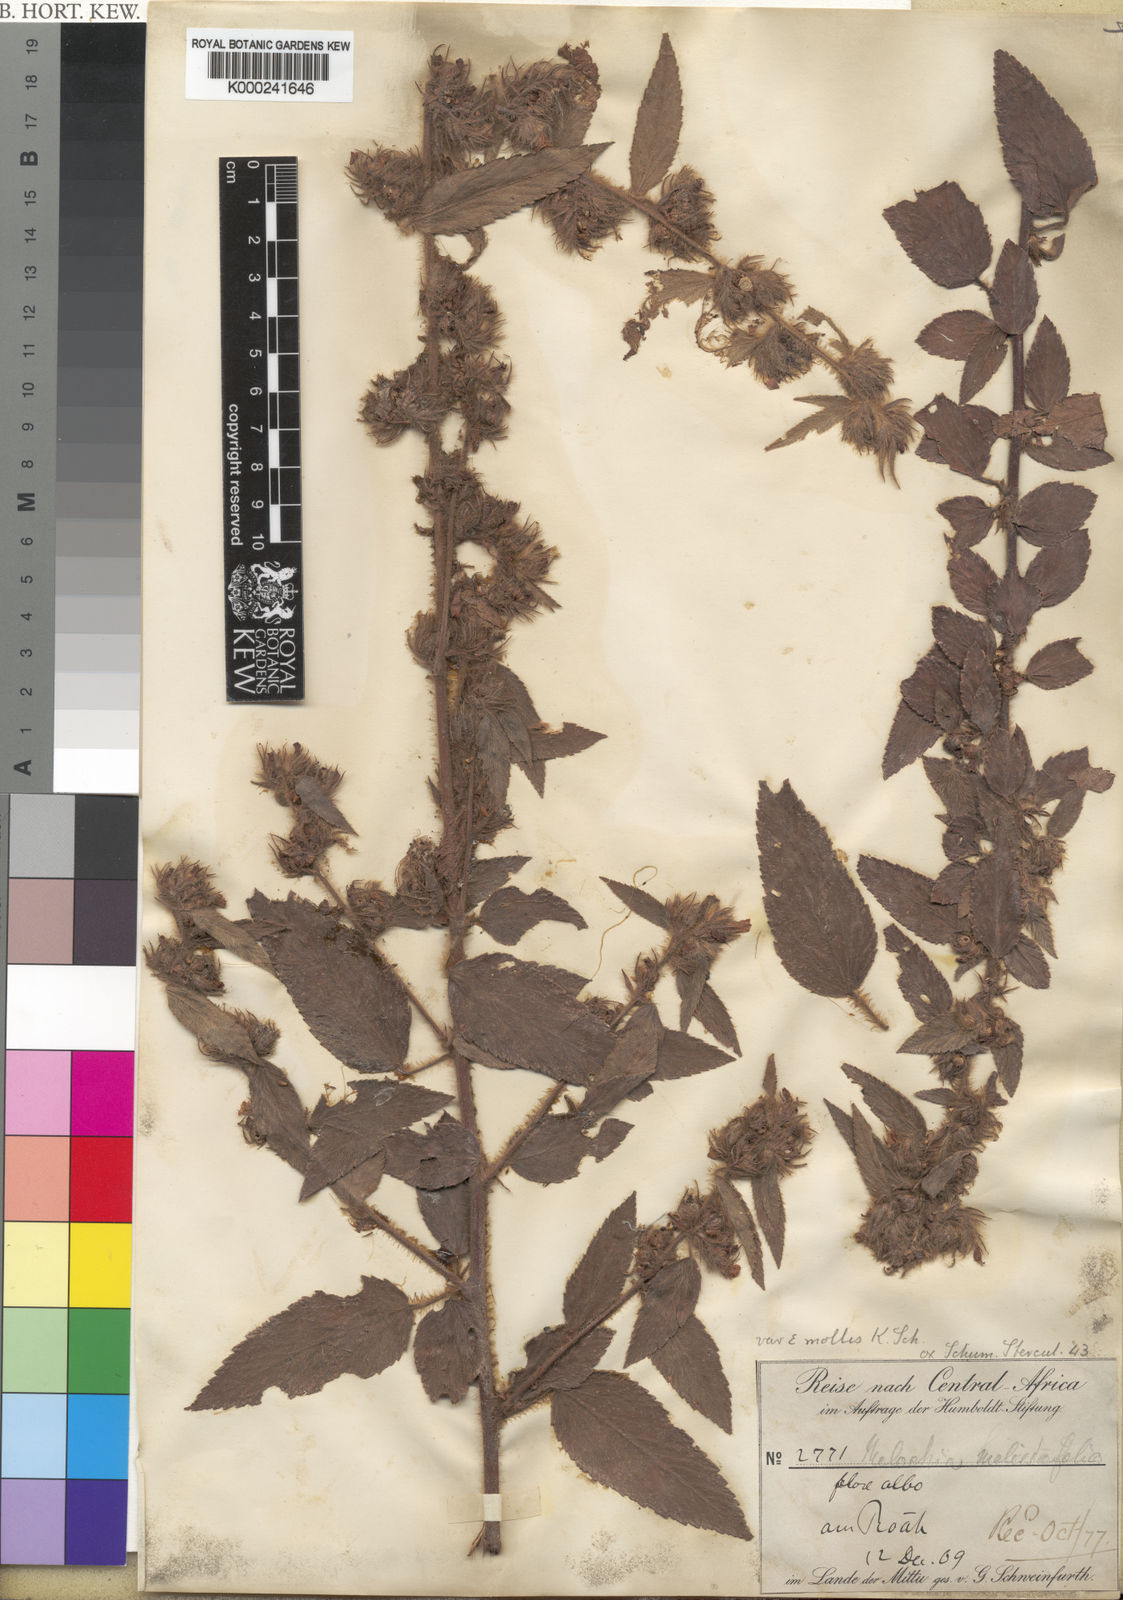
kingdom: Plantae
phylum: Tracheophyta
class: Magnoliopsida
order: Malvales
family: Malvaceae
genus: Melochia
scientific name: Melochia
